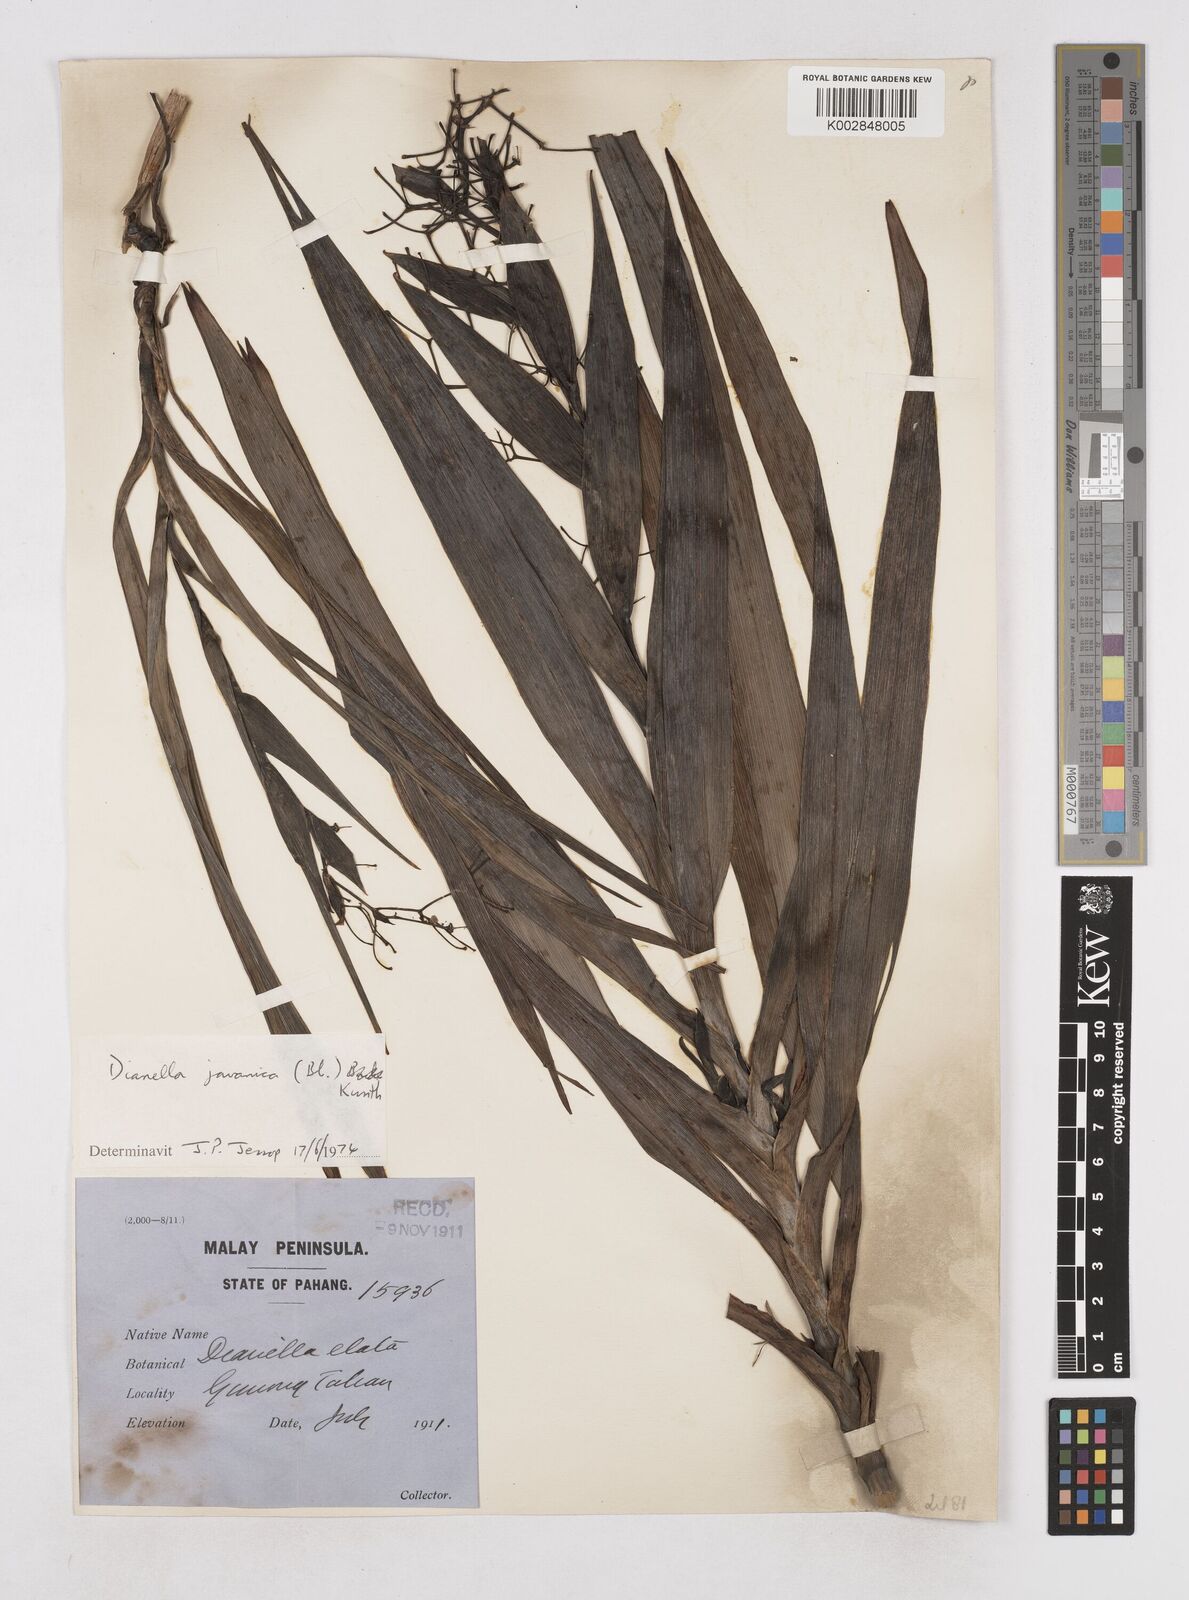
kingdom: Plantae
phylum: Tracheophyta
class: Liliopsida
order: Asparagales
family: Asphodelaceae
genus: Dianella
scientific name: Dianella ensifolia
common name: New zealand lilyplant
